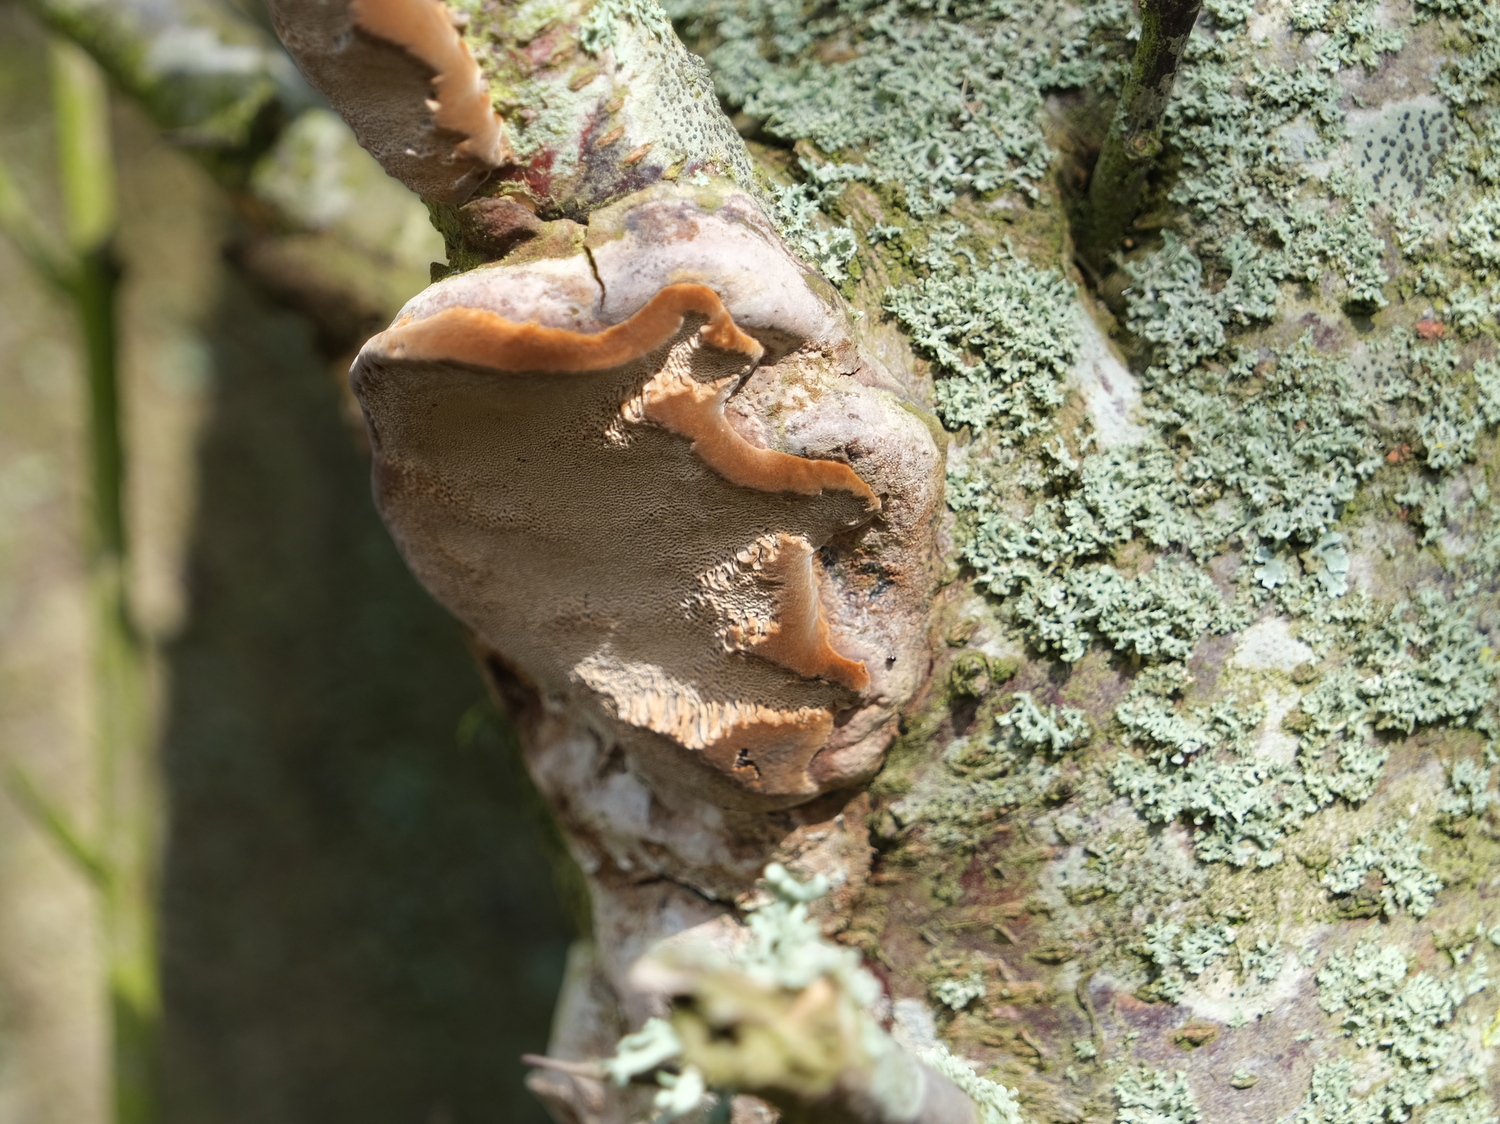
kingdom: Fungi
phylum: Basidiomycota
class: Agaricomycetes
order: Hymenochaetales
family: Hymenochaetaceae
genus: Phellinus
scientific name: Phellinus pomaceus
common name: blomme-ildporesvamp
